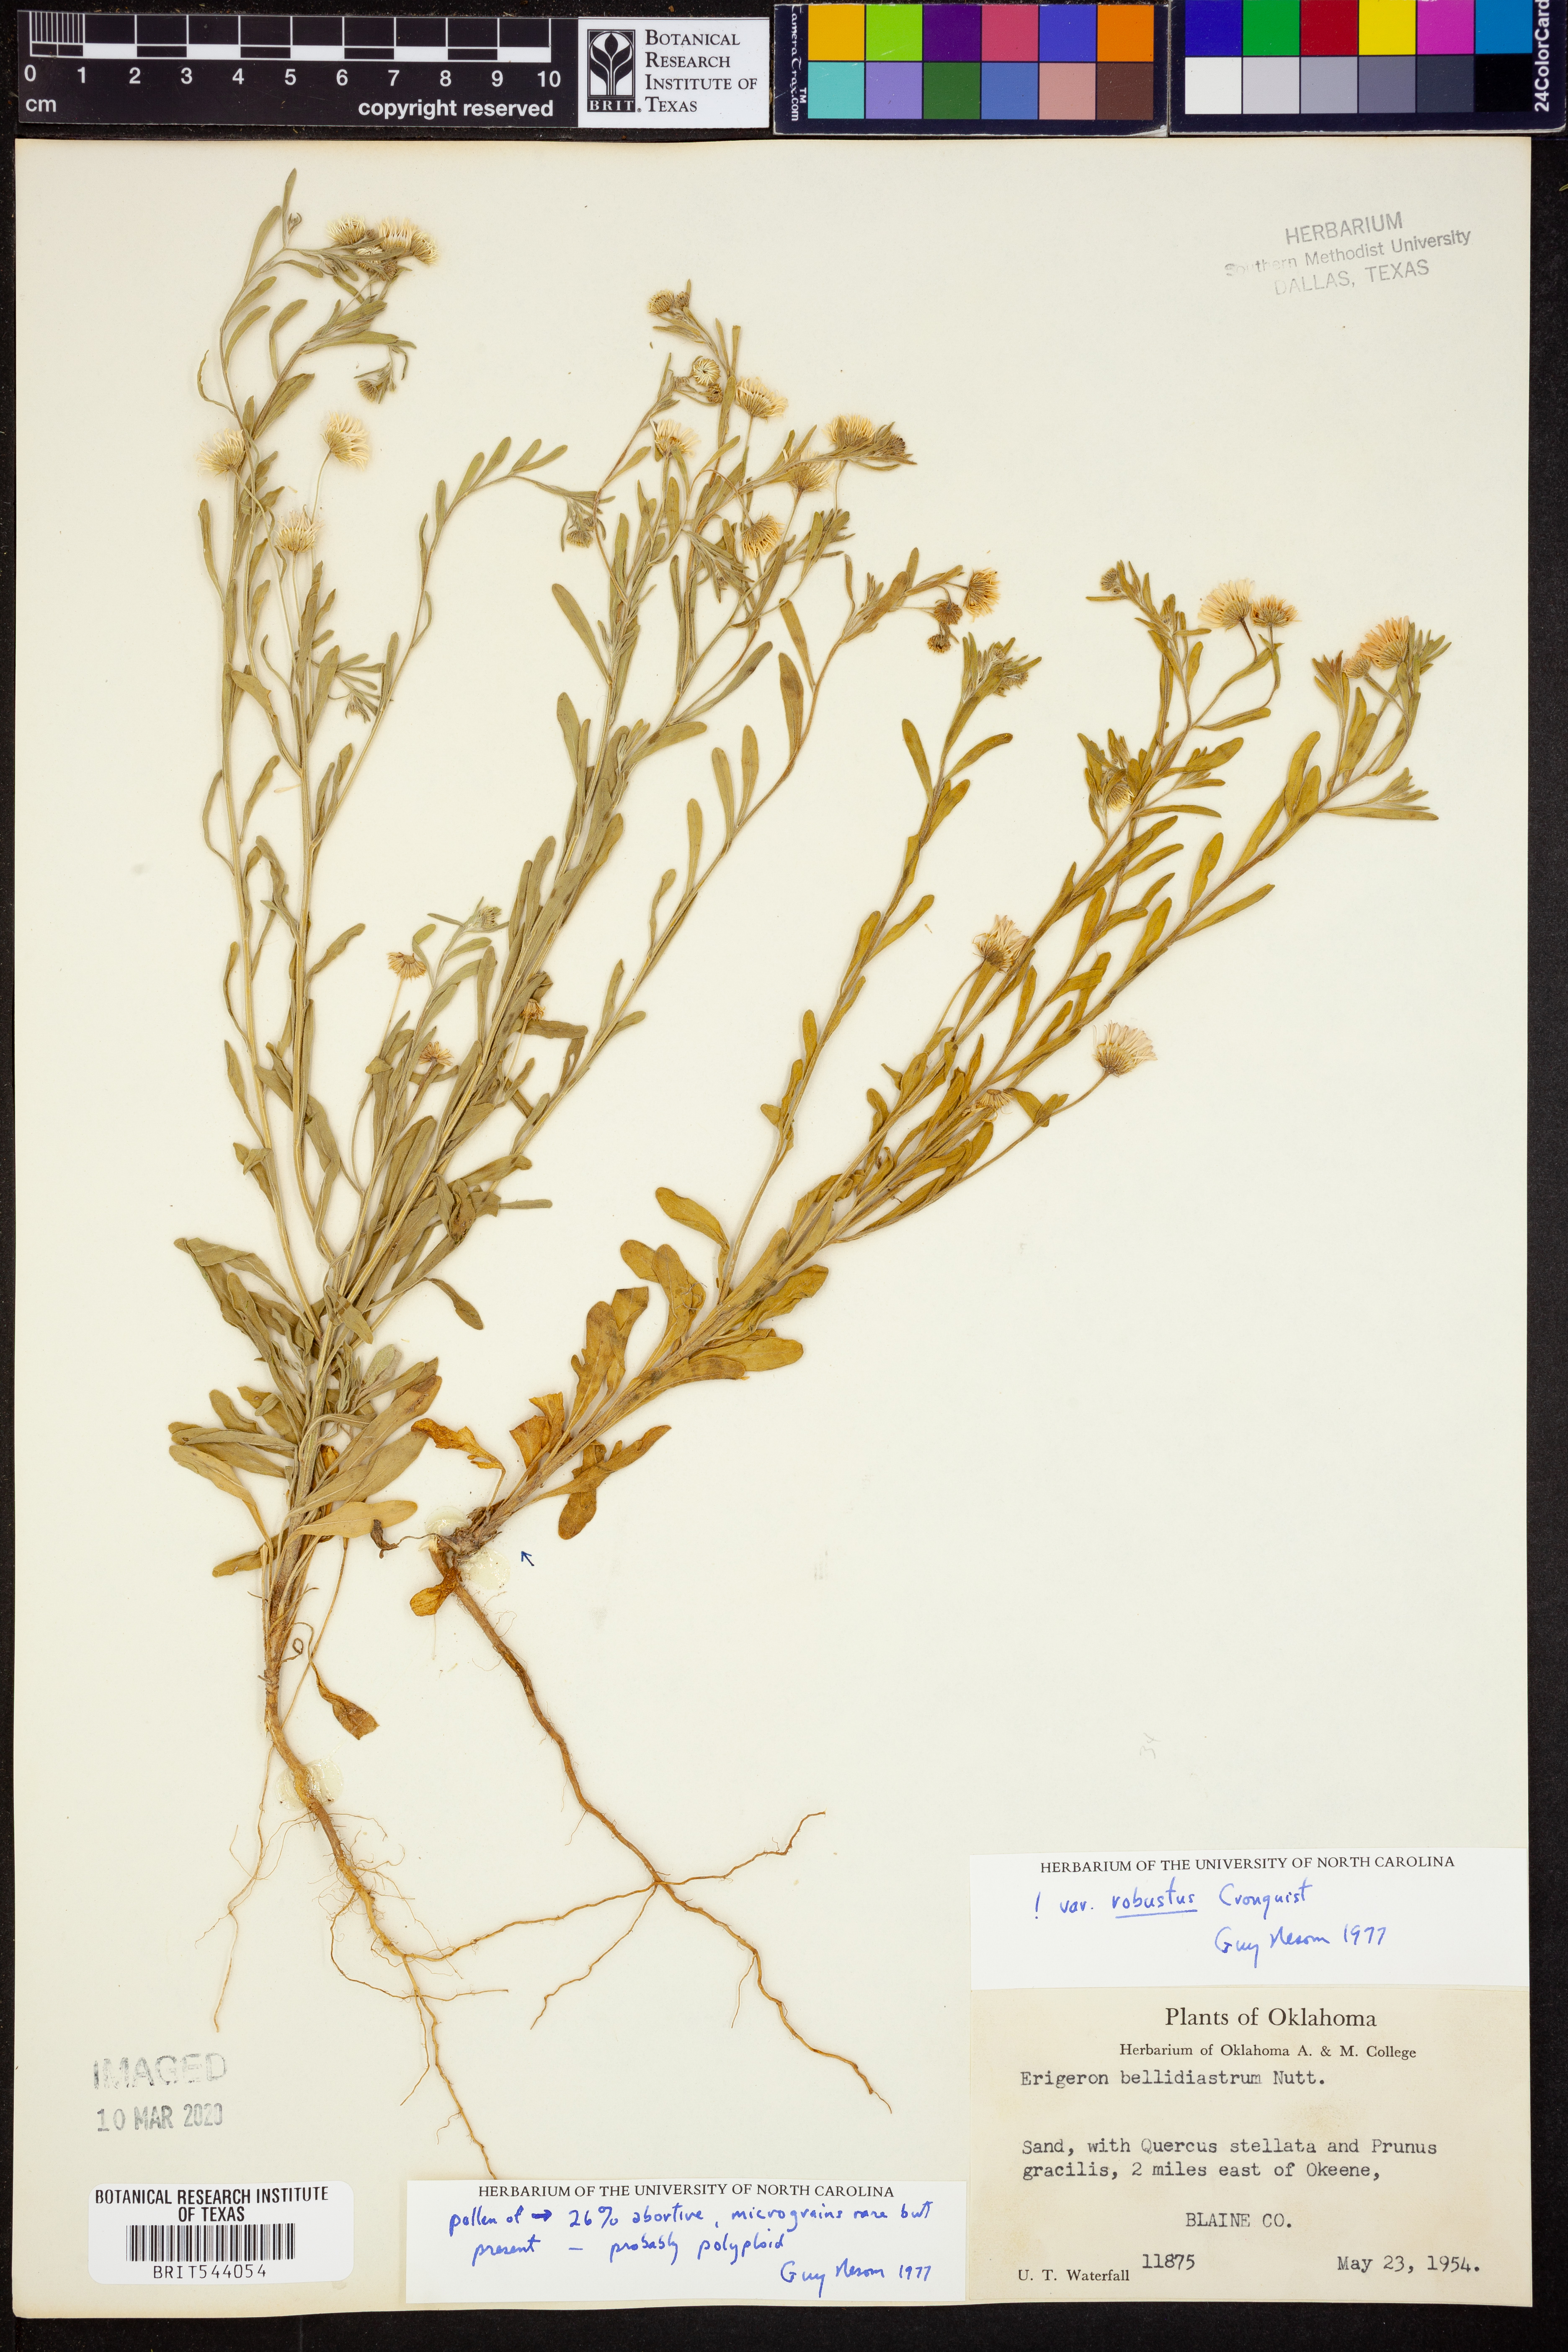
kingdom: Plantae
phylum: Tracheophyta
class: Magnoliopsida
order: Asterales
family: Asteraceae
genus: Erigeron
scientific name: Erigeron bellidiastrum
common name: Sand fleabane
